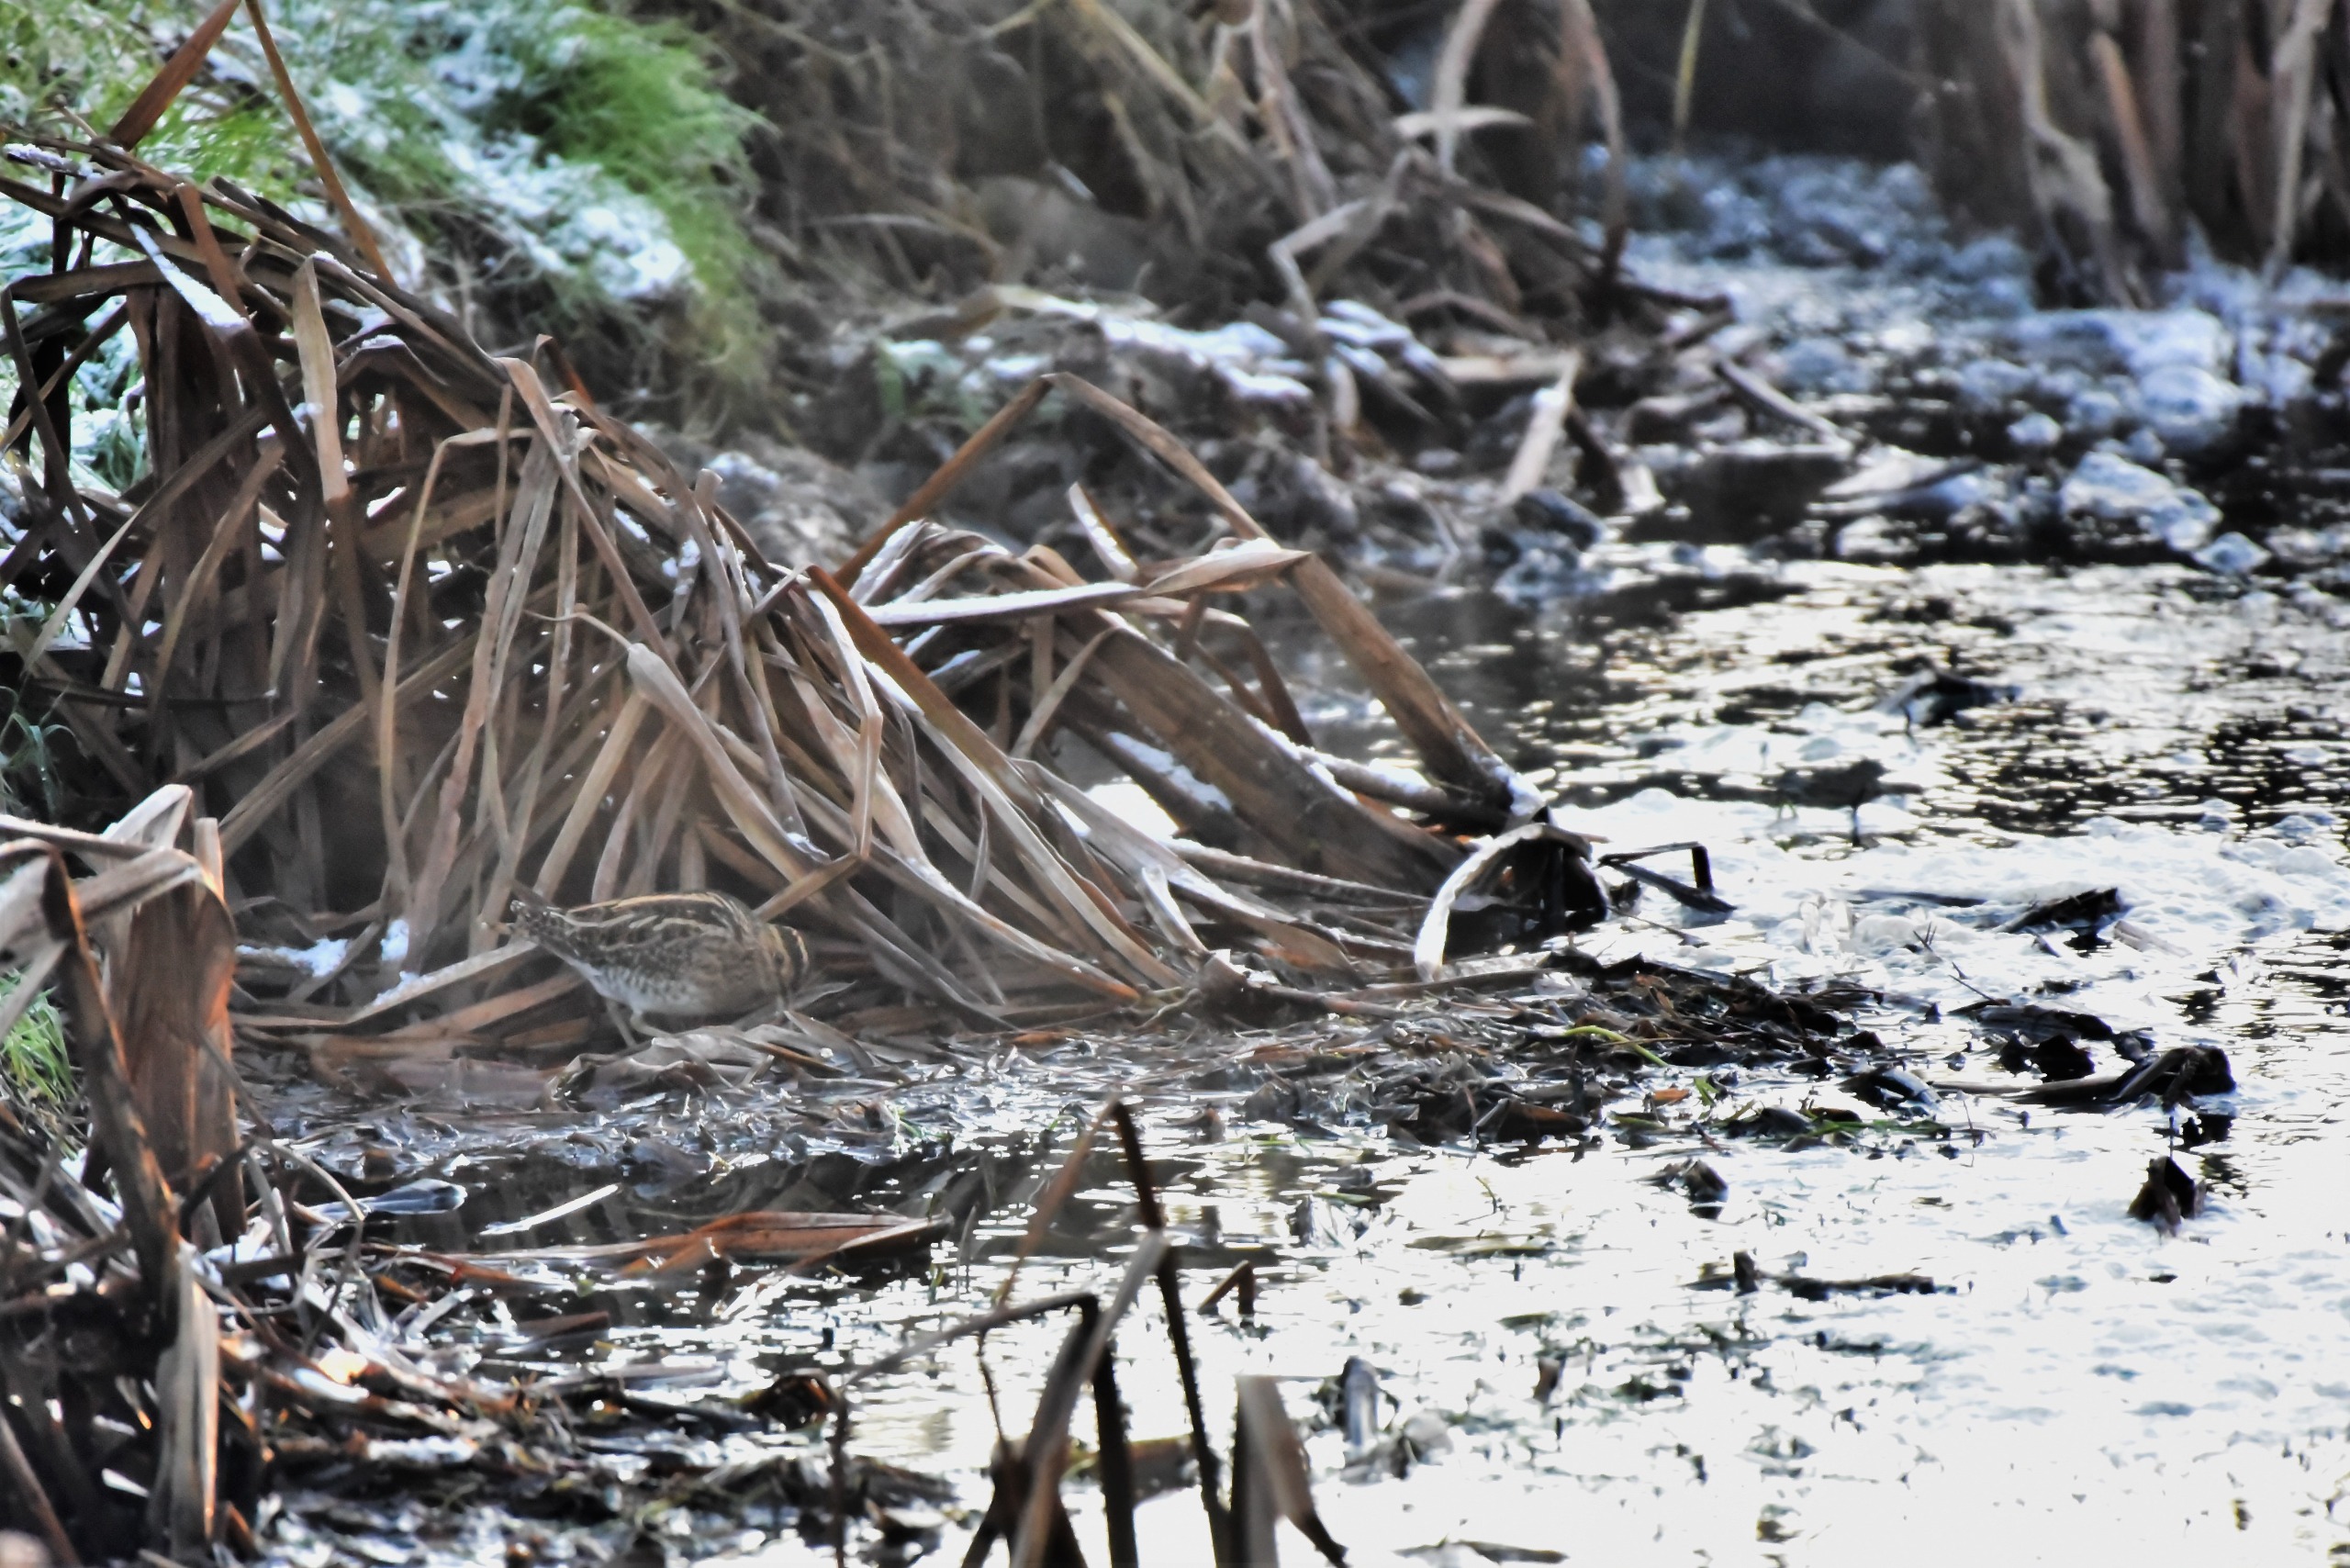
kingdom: Animalia
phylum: Chordata
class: Aves
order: Charadriiformes
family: Scolopacidae
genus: Gallinago
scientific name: Gallinago gallinago
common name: Dobbeltbekkasin
